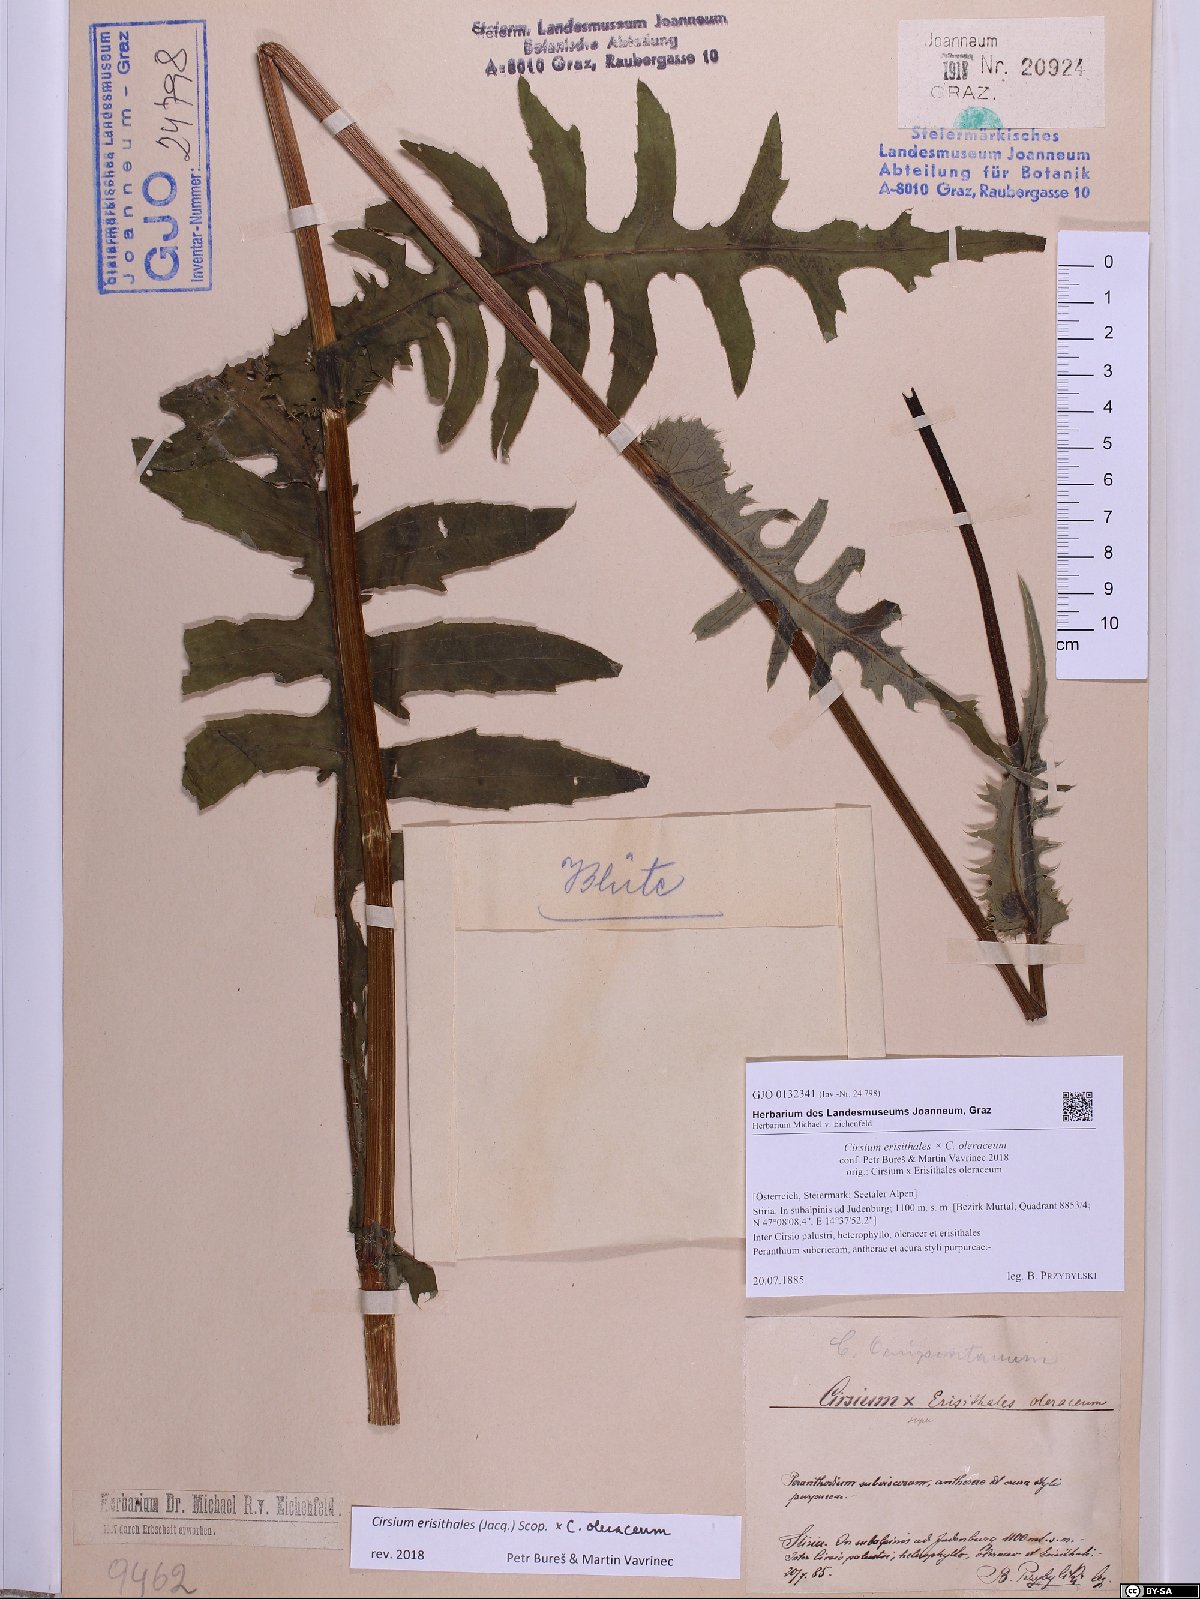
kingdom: Plantae
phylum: Tracheophyta
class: Magnoliopsida
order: Asterales
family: Asteraceae
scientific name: Asteraceae
